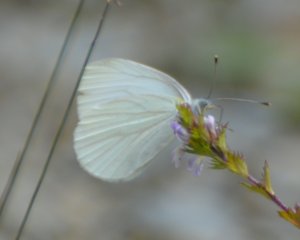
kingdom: Animalia
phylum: Arthropoda
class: Insecta
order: Lepidoptera
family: Pieridae
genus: Pieris
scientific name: Pieris oleracea
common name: Mustard White
